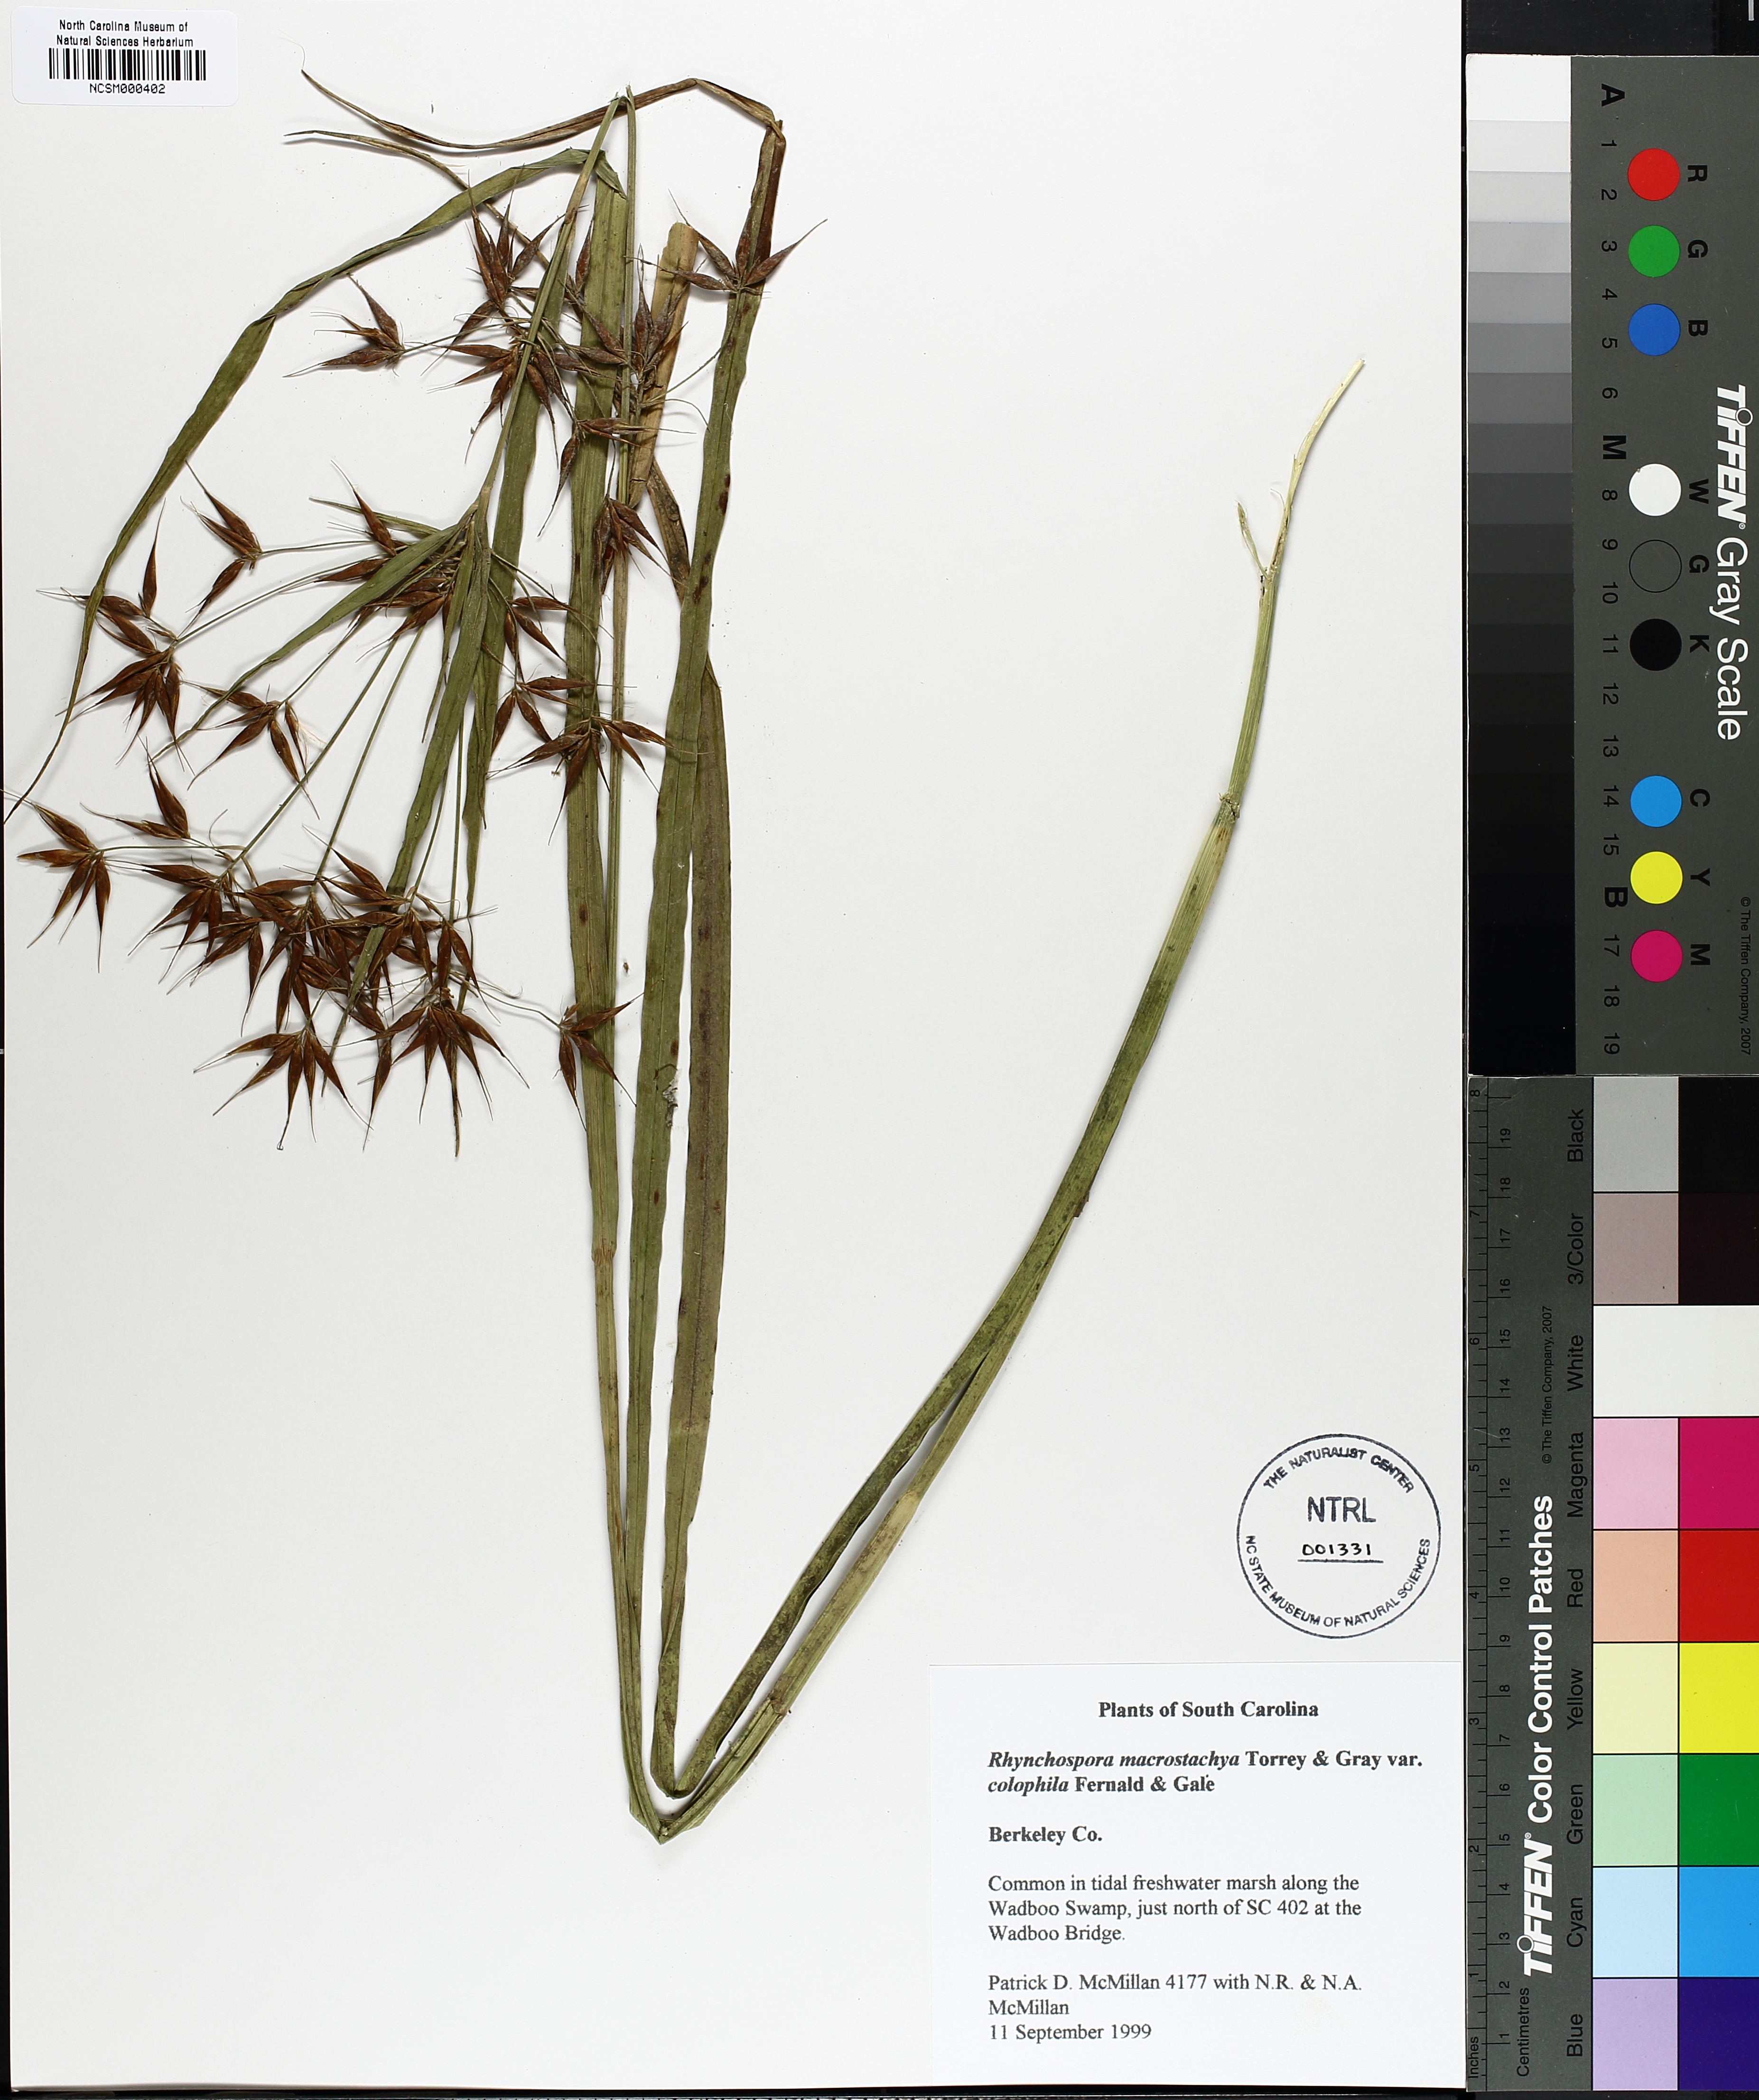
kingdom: Plantae
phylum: Tracheophyta
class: Liliopsida
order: Poales
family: Cyperaceae
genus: Rhynchospora
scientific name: Rhynchospora macrostachya
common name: Tall beakrush
